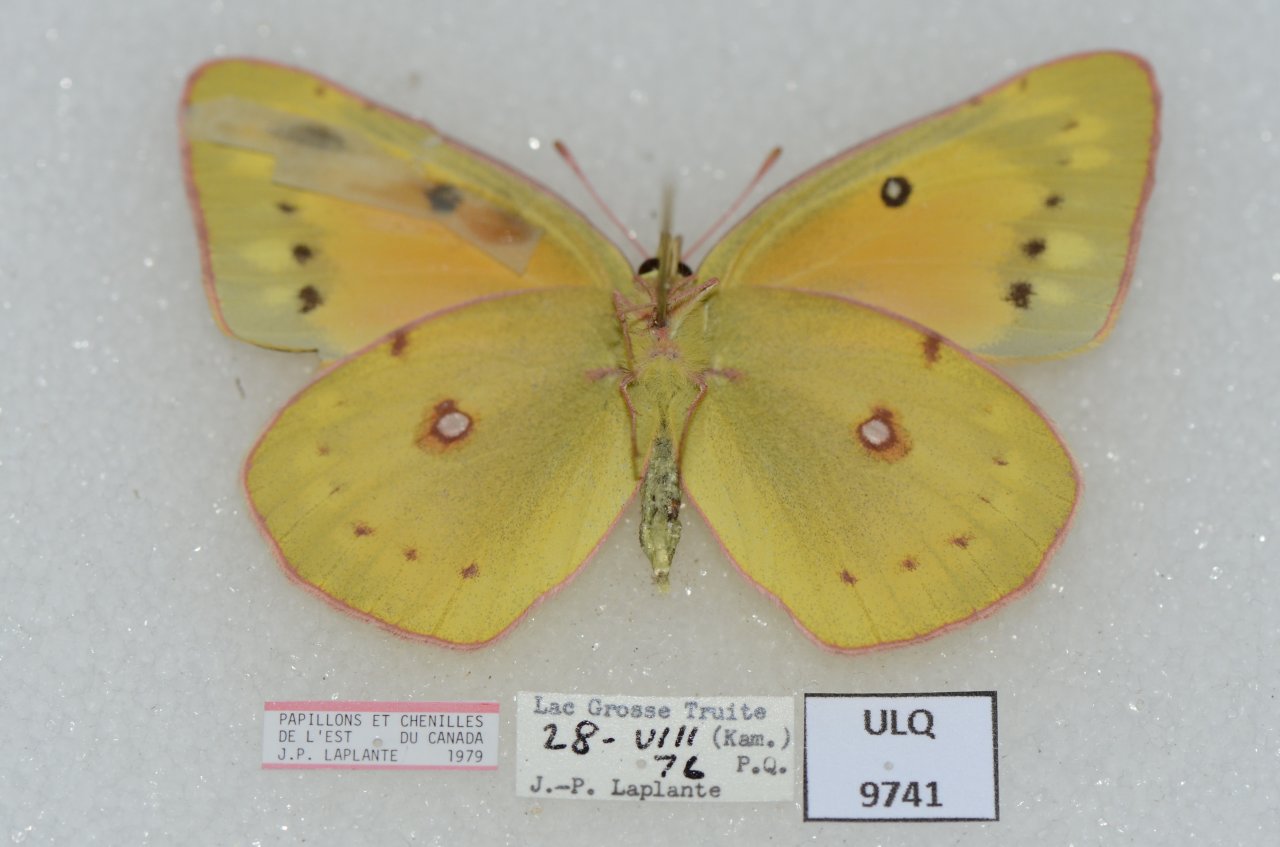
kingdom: Animalia
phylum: Arthropoda
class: Insecta
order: Lepidoptera
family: Pieridae
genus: Colias
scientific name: Colias eurytheme
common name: Orange Sulphur
